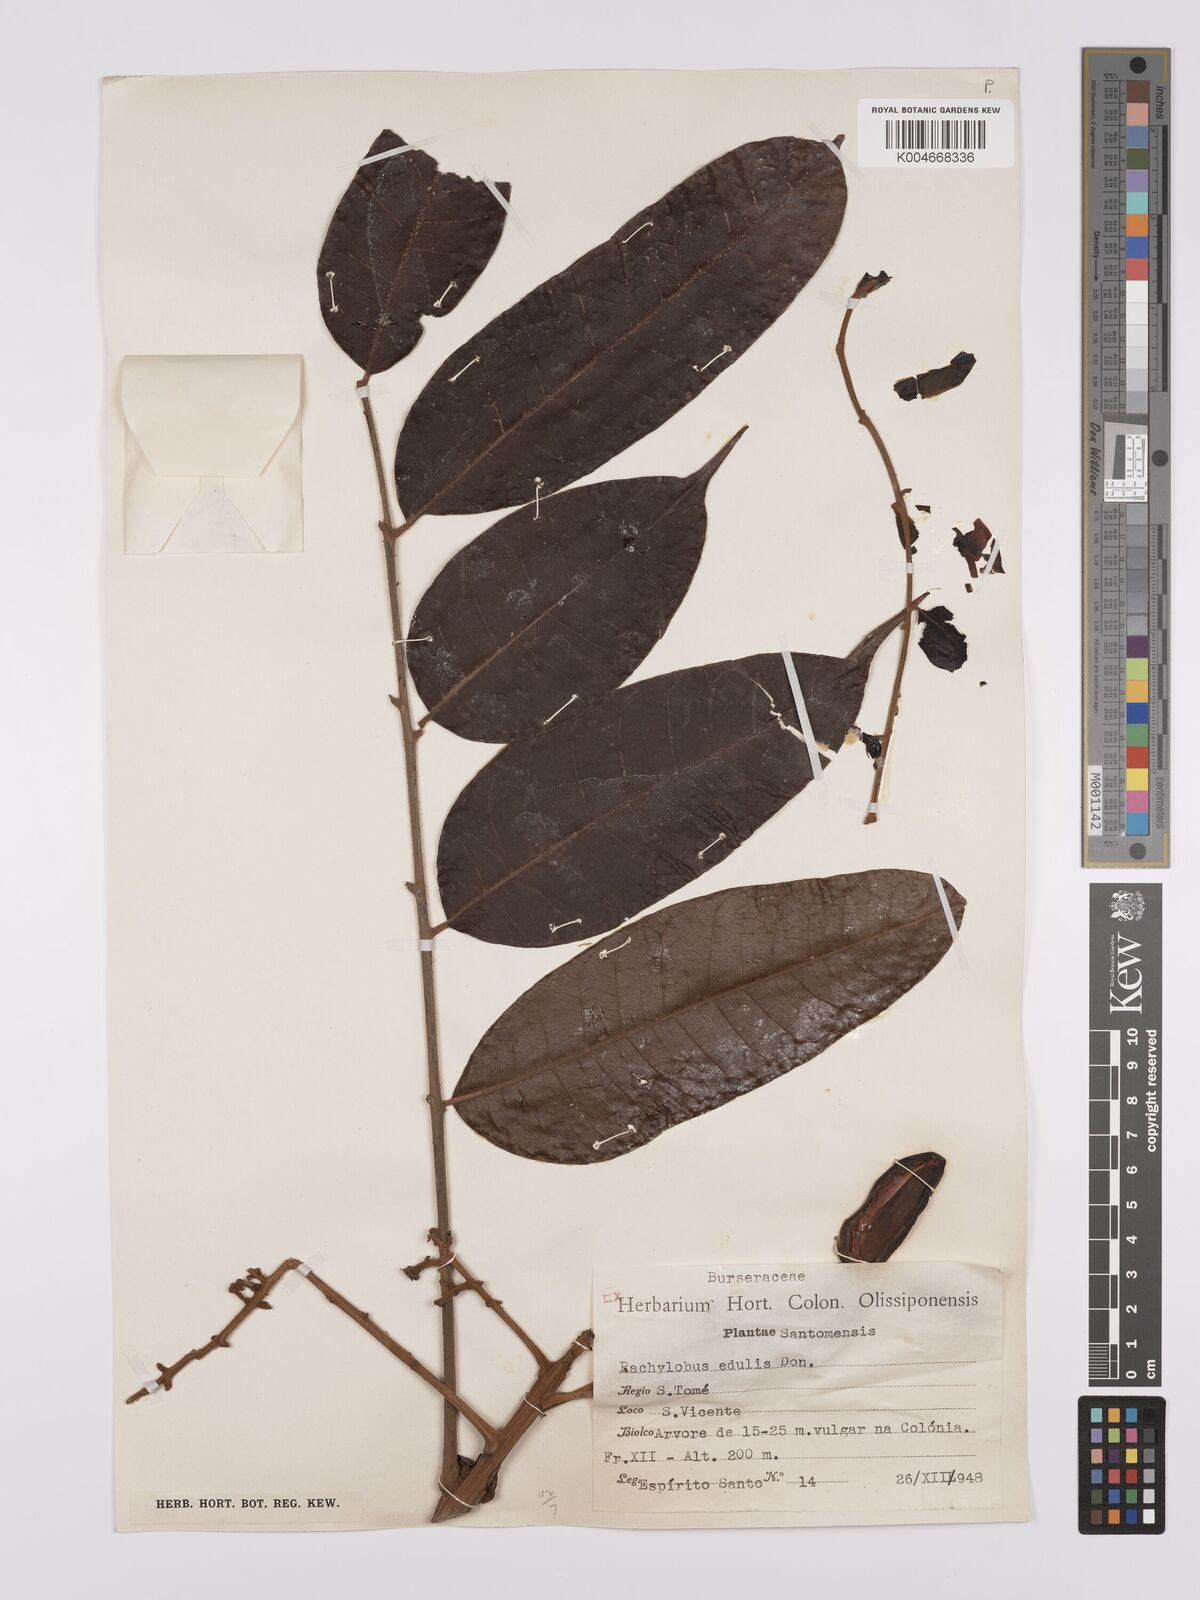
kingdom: Plantae
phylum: Tracheophyta
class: Magnoliopsida
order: Sapindales
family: Burseraceae
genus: Pachylobus
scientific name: Pachylobus edulis
